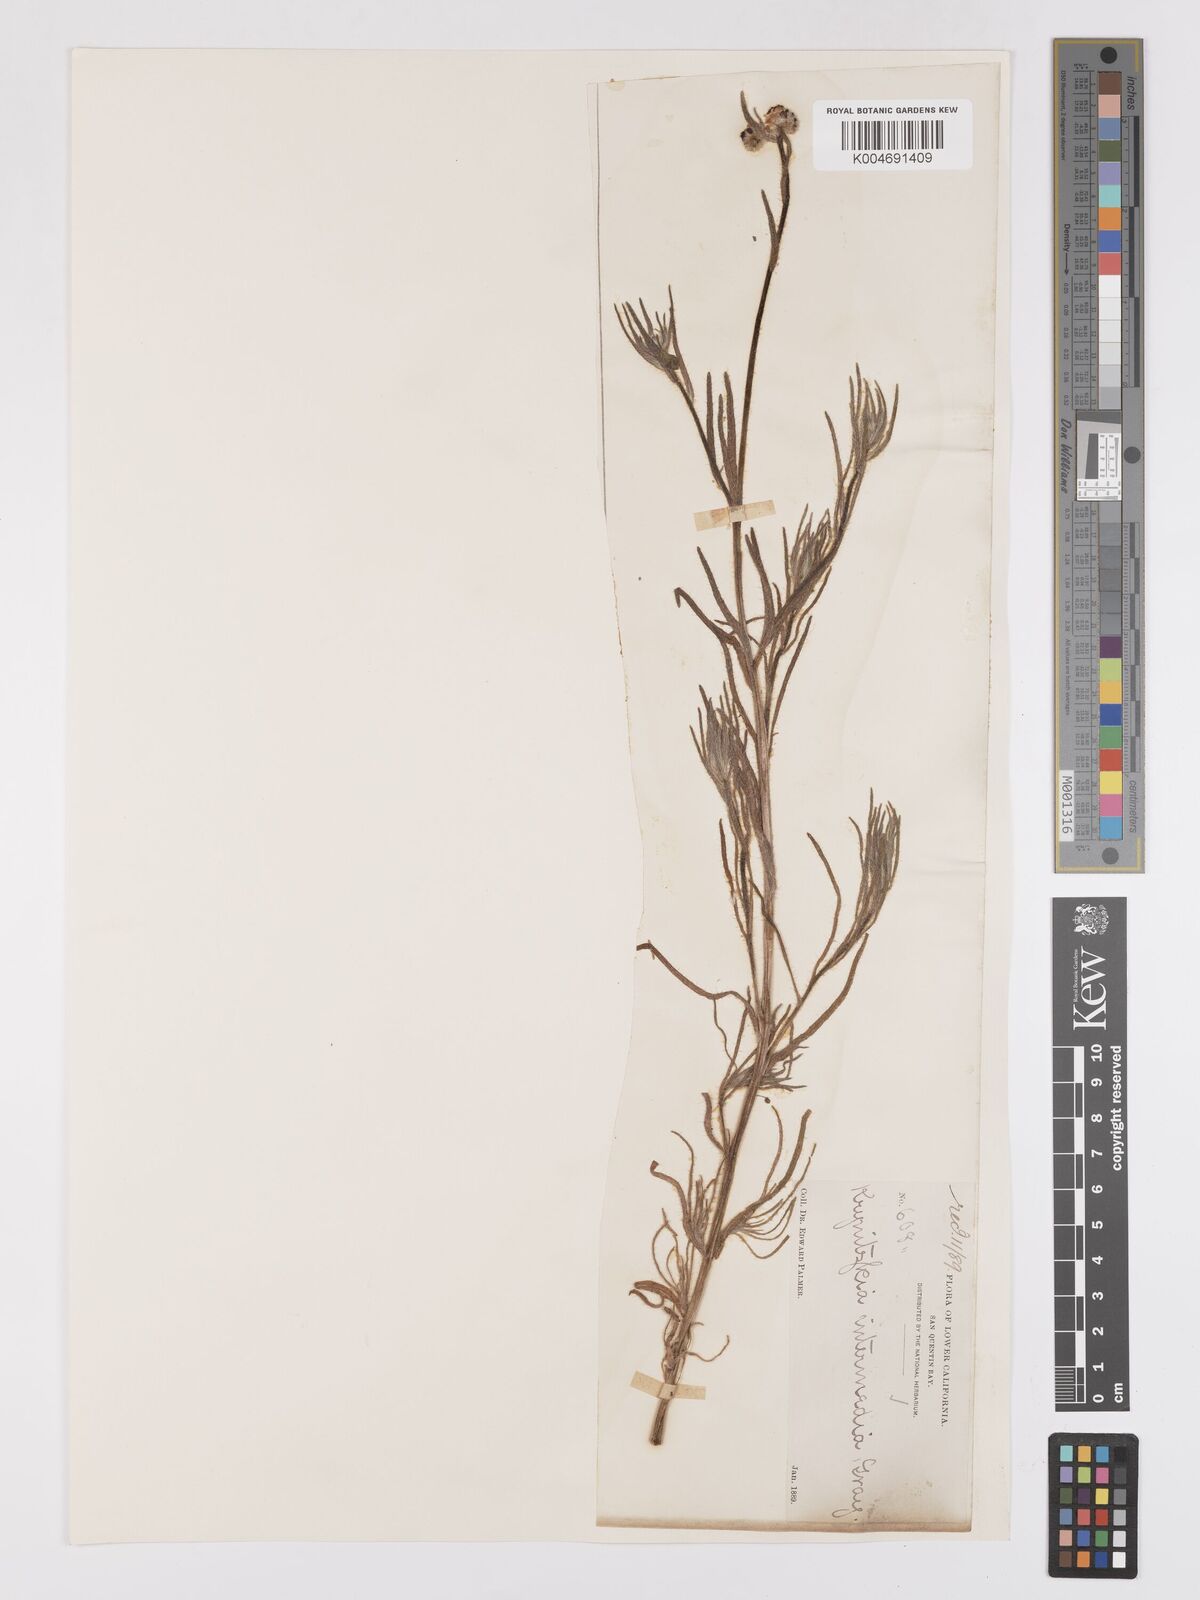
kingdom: Plantae
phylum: Tracheophyta
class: Magnoliopsida
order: Boraginales
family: Boraginaceae
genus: Cryptantha
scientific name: Cryptantha intermedia
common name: Clearwater cryptantha
